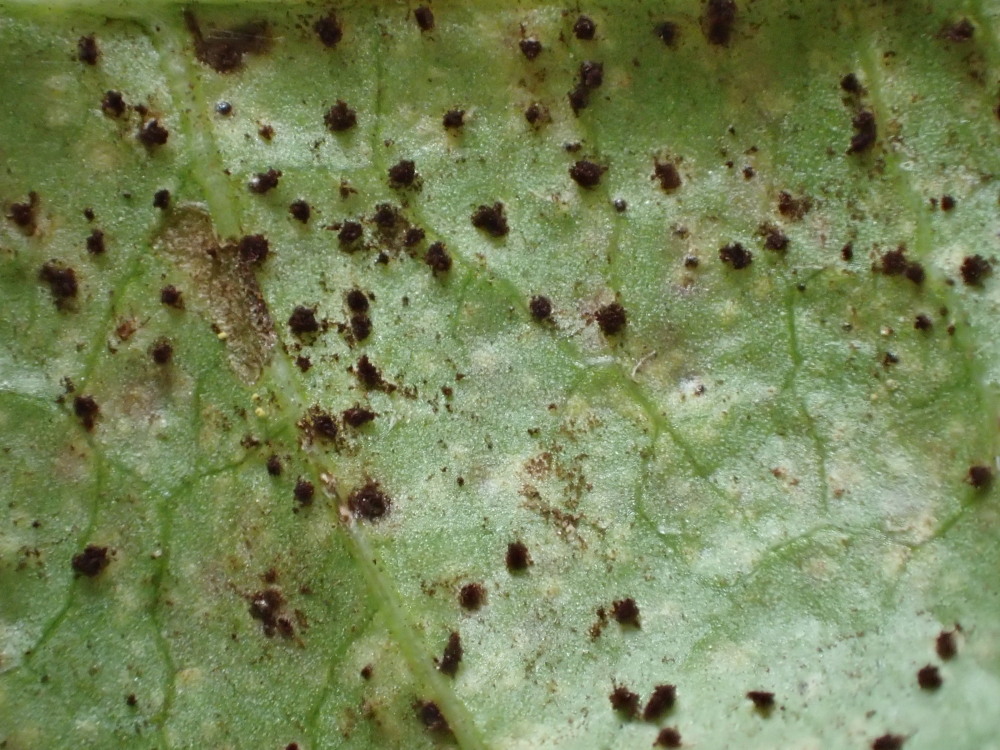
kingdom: Fungi
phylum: Basidiomycota
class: Pucciniomycetes
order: Pucciniales
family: Pucciniaceae
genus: Puccinia
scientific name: Puccinia variabilis
